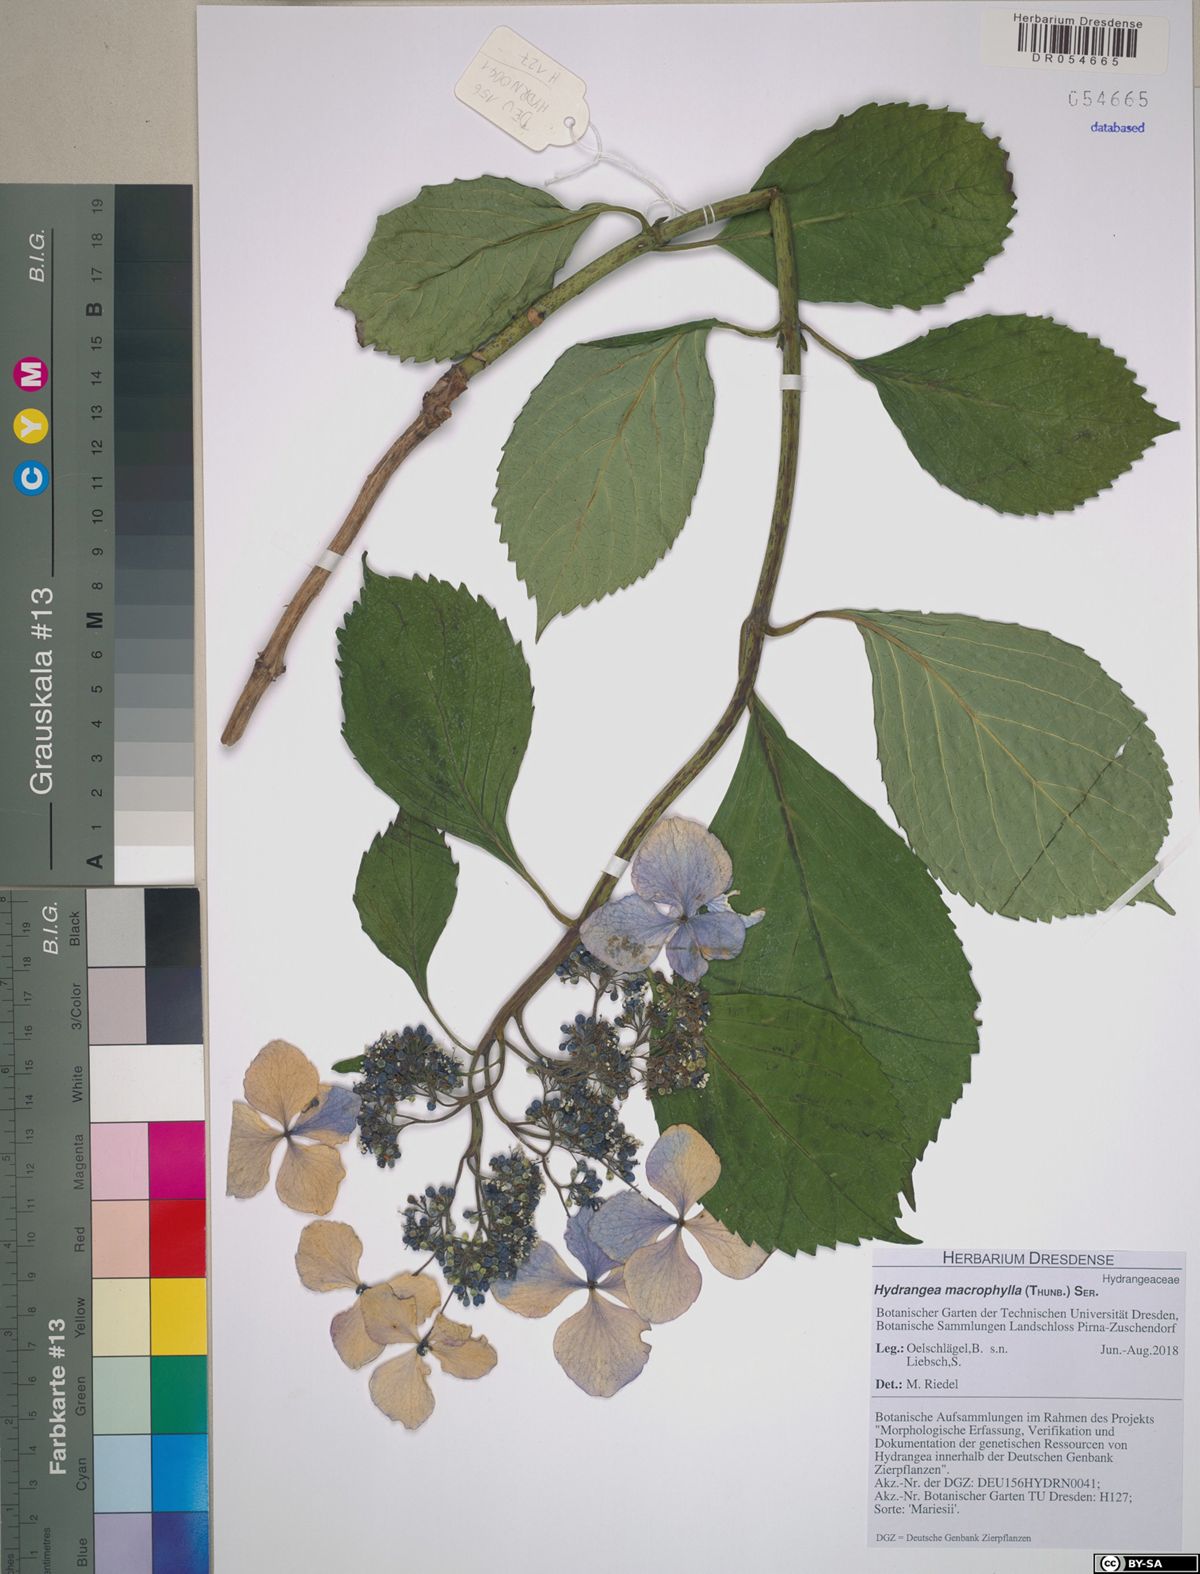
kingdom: Plantae
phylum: Tracheophyta
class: Magnoliopsida
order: Cornales
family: Hydrangeaceae
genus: Hydrangea
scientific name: Hydrangea macrophylla
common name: Hydrangea
